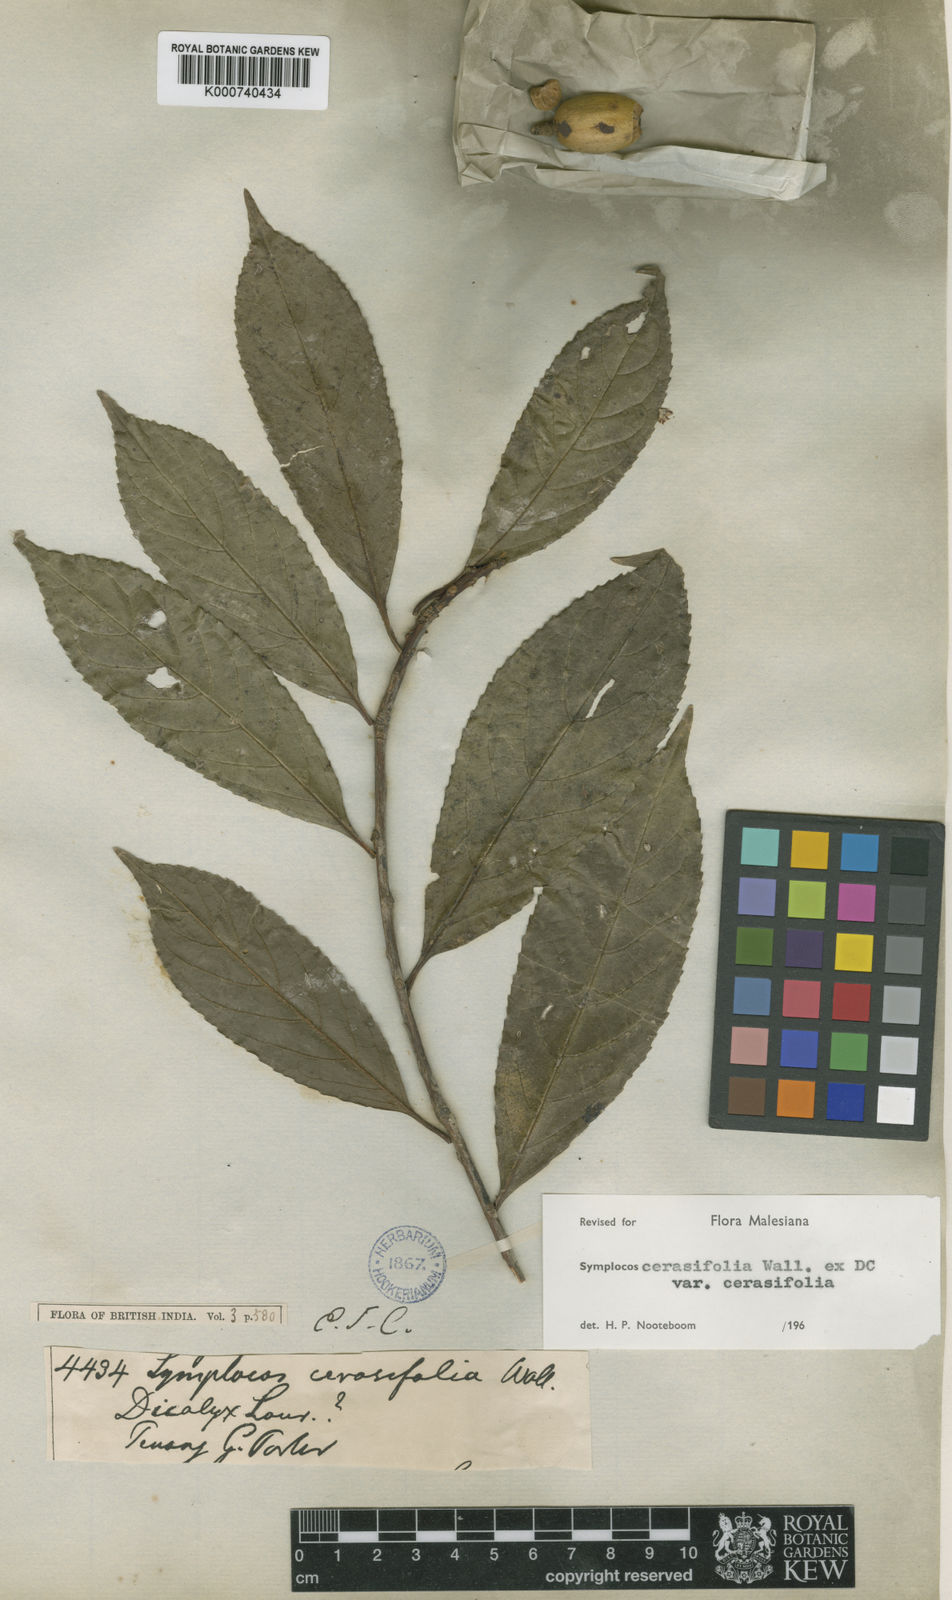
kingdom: Plantae
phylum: Tracheophyta
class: Magnoliopsida
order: Ericales
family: Symplocaceae
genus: Symplocos
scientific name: Symplocos
